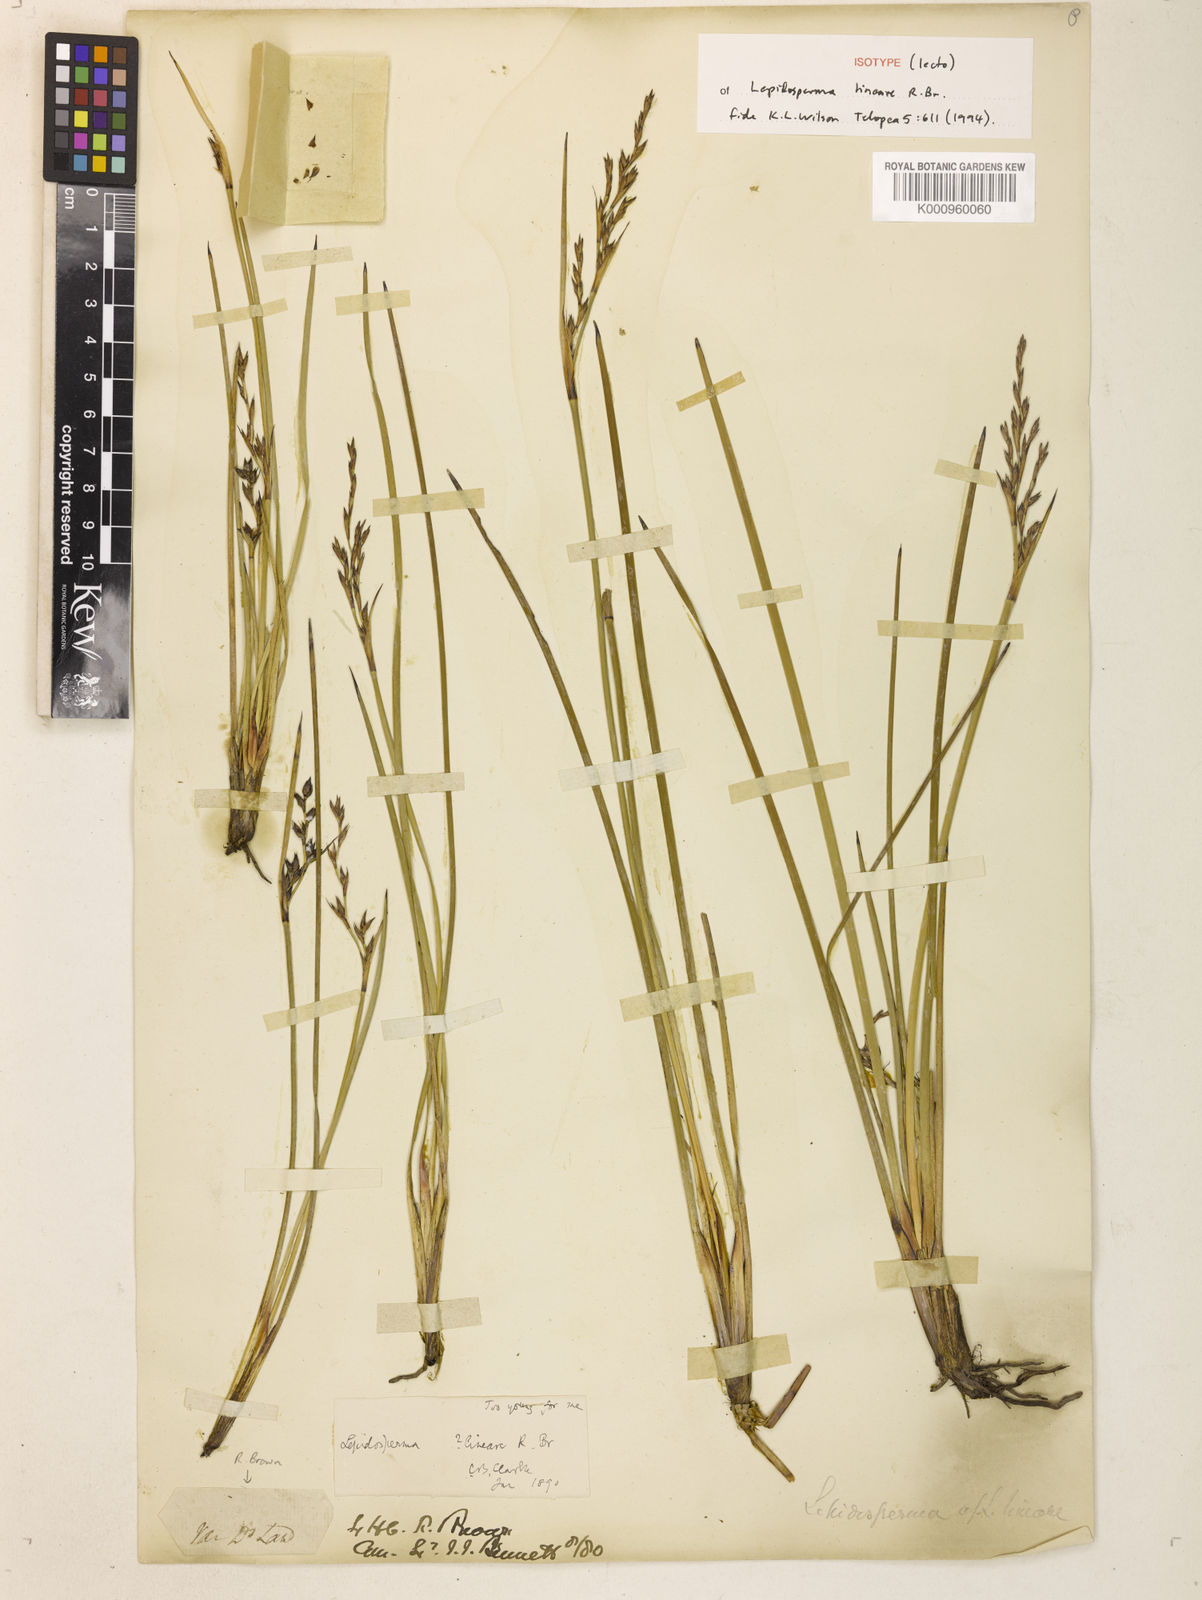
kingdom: Plantae
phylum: Tracheophyta
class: Liliopsida
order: Poales
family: Cyperaceae
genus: Lepidosperma
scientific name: Lepidosperma lineare
